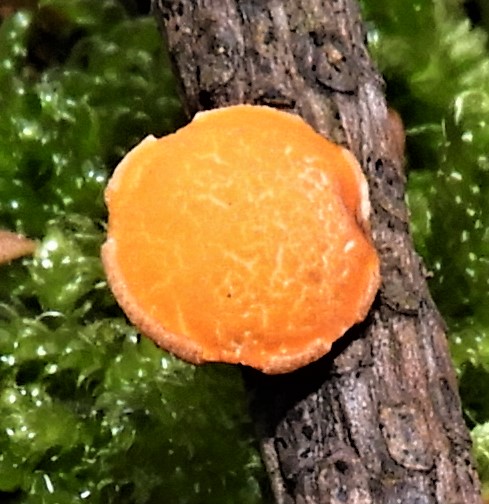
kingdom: Fungi
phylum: Ascomycota
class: Pezizomycetes
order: Pezizales
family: Sarcoscyphaceae
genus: Pithya
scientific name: Pithya vulgaris
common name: stor dukatbæger
